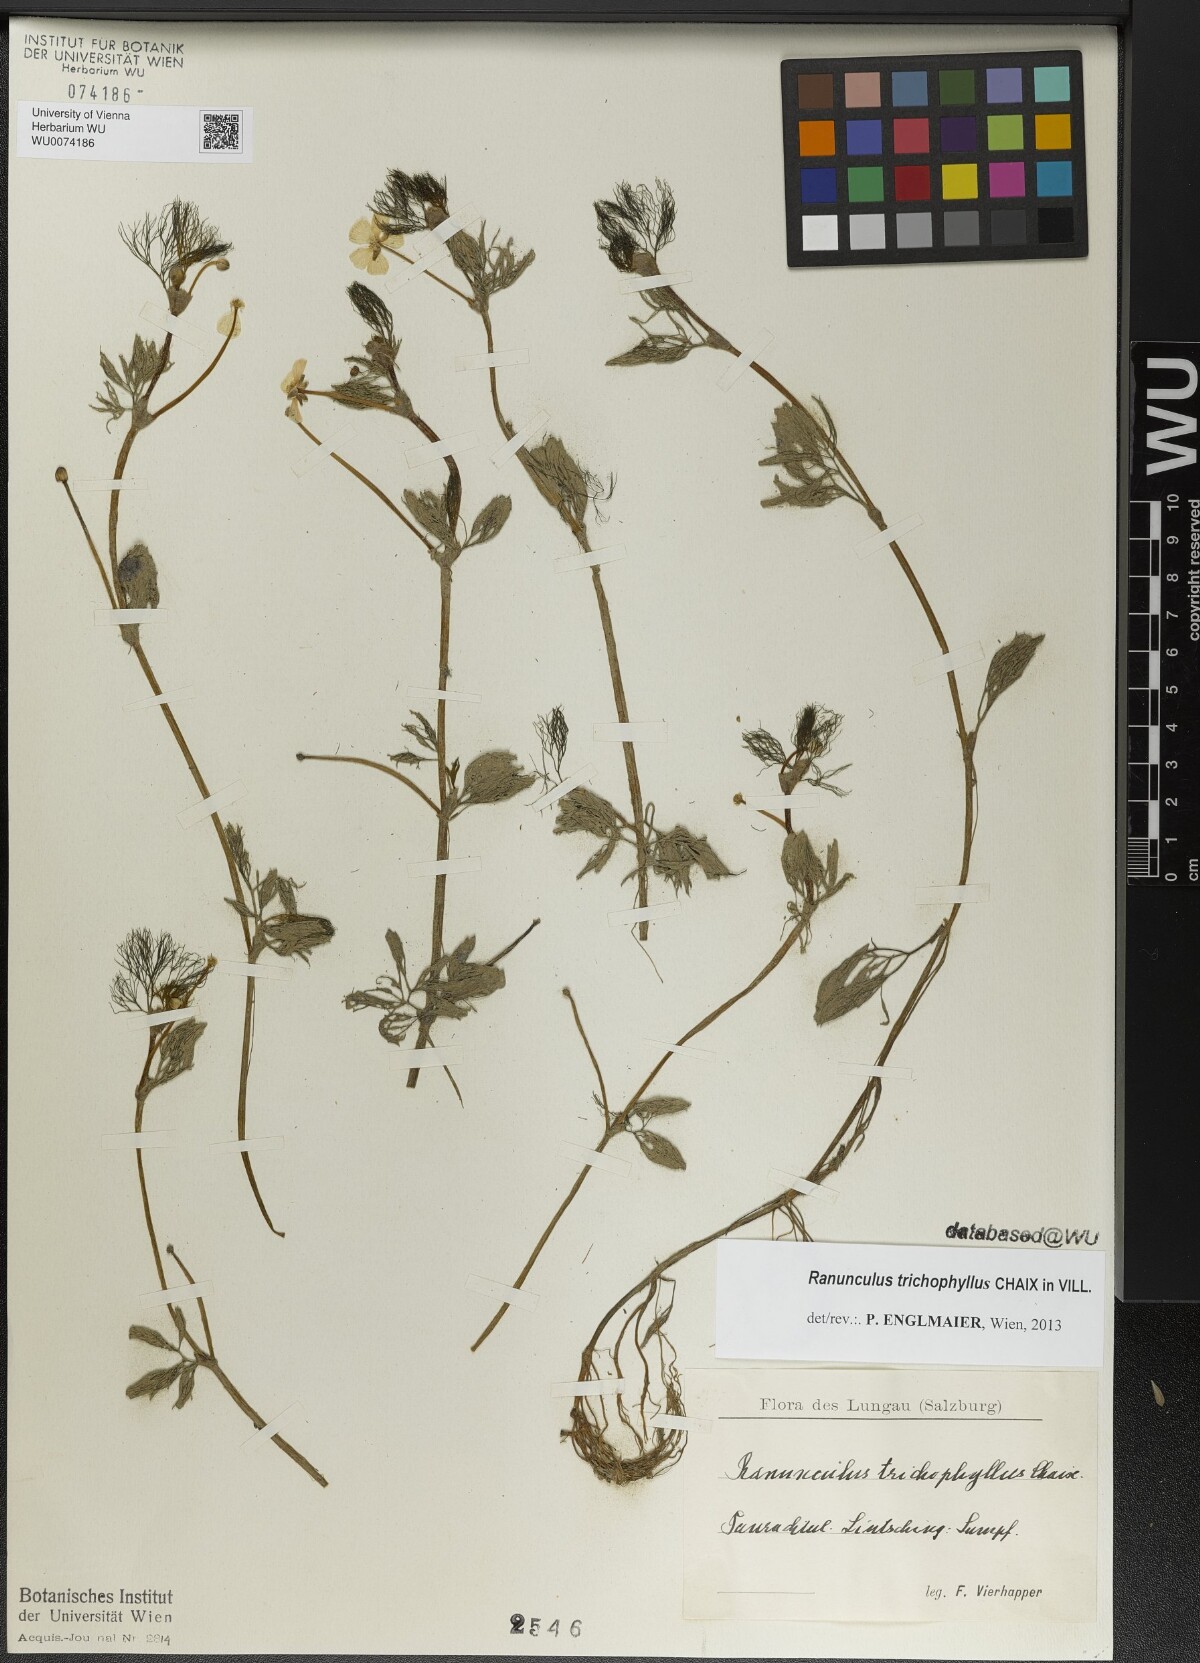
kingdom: Plantae
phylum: Tracheophyta
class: Magnoliopsida
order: Ranunculales
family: Ranunculaceae
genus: Ranunculus
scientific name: Ranunculus trichophyllus
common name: Thread-leaved water-crowfoot
